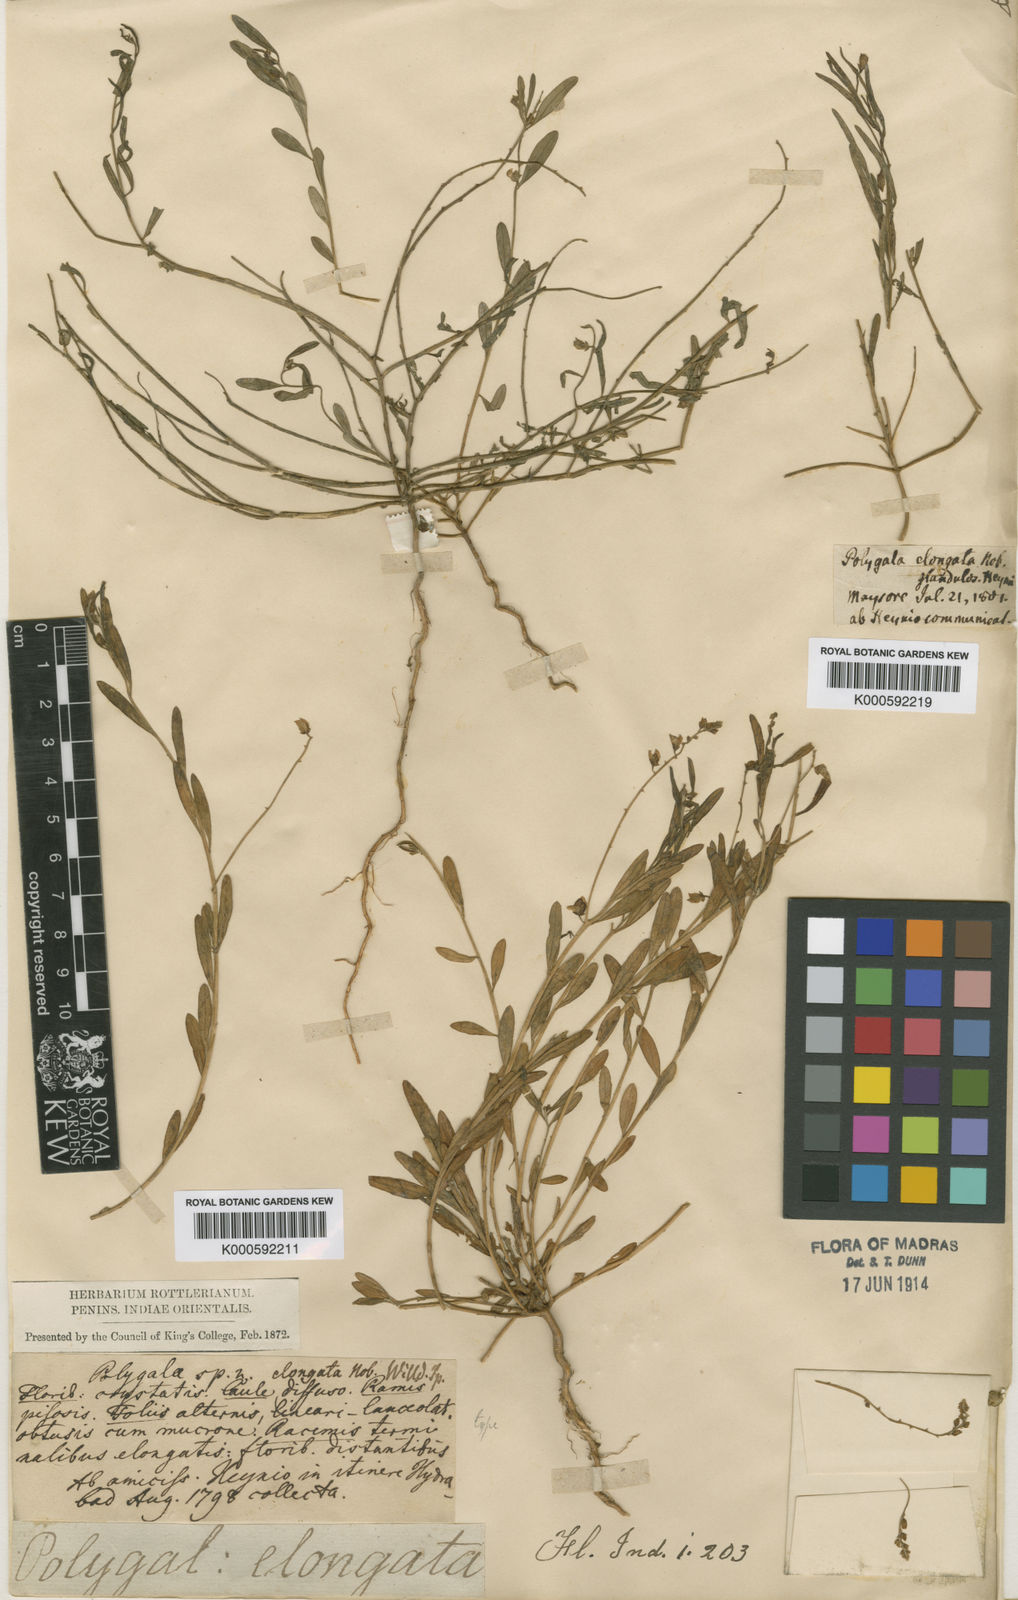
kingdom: Plantae
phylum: Tracheophyta
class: Magnoliopsida
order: Fabales
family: Polygalaceae
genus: Polygala
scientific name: Polygala
